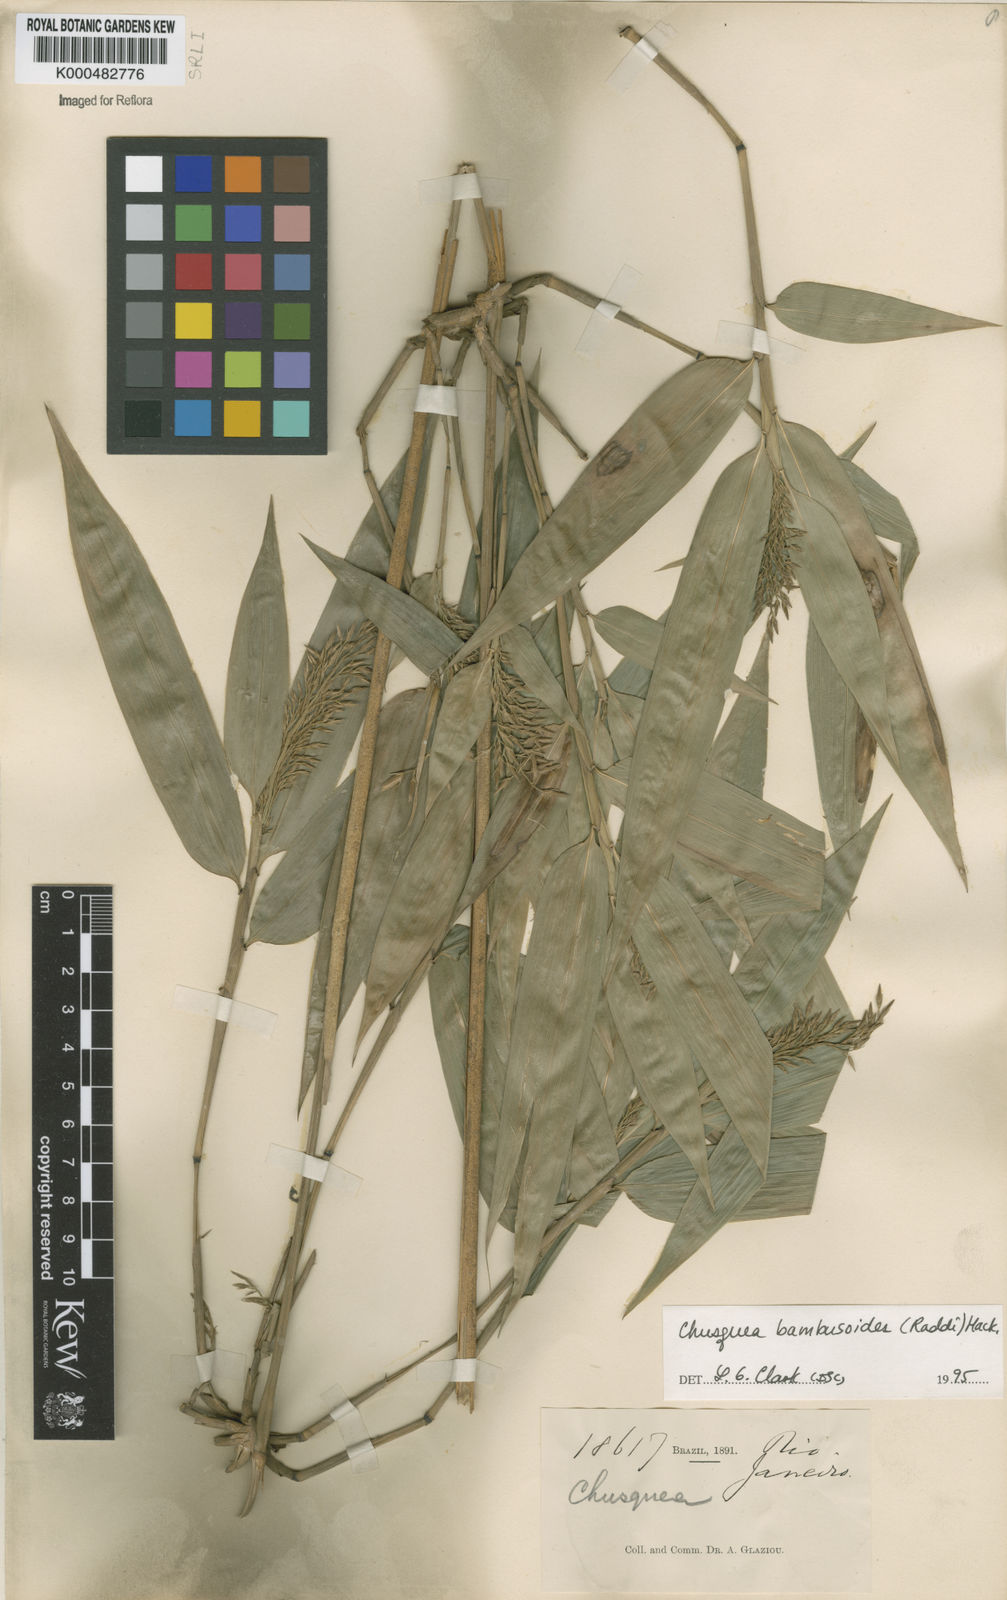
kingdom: Plantae
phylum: Tracheophyta
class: Liliopsida
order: Poales
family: Poaceae
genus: Chusquea
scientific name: Chusquea bambusoides
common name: Brazil scrambling bamboo
